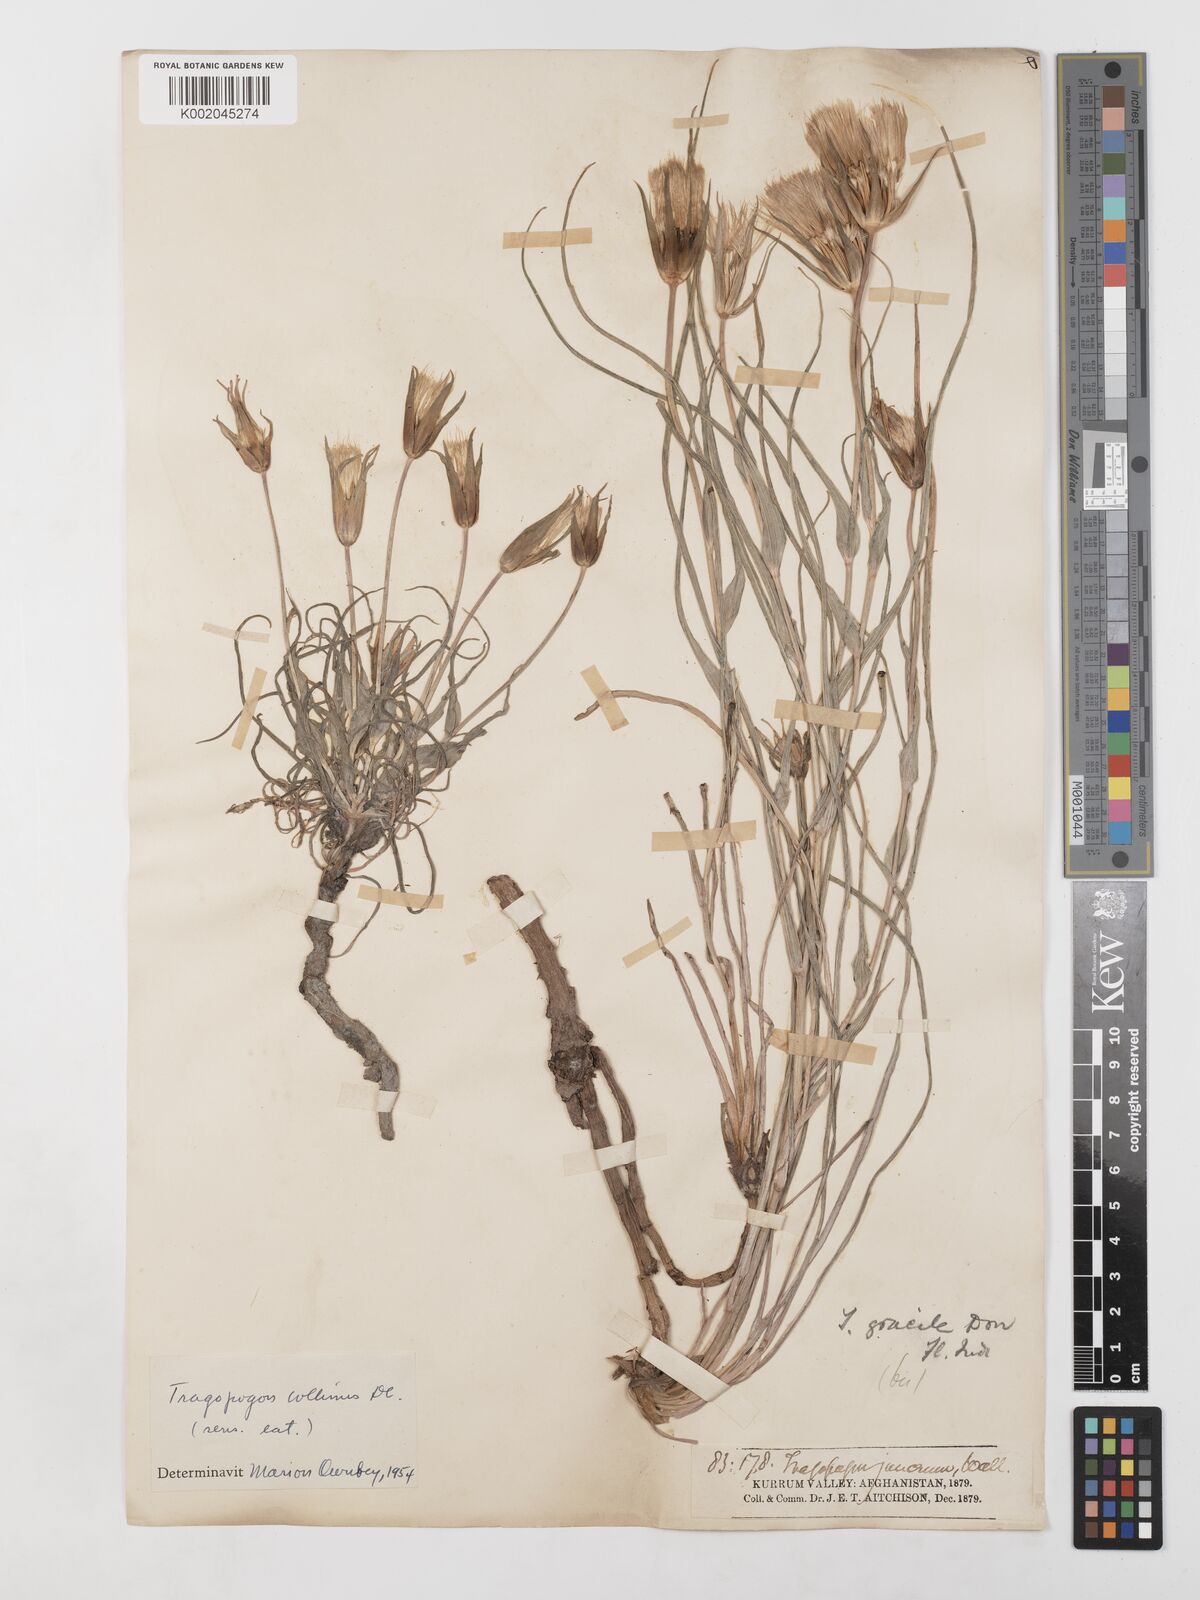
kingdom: Plantae
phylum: Tracheophyta
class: Magnoliopsida
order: Asterales
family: Asteraceae
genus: Tragopogon
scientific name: Tragopogon collinus
